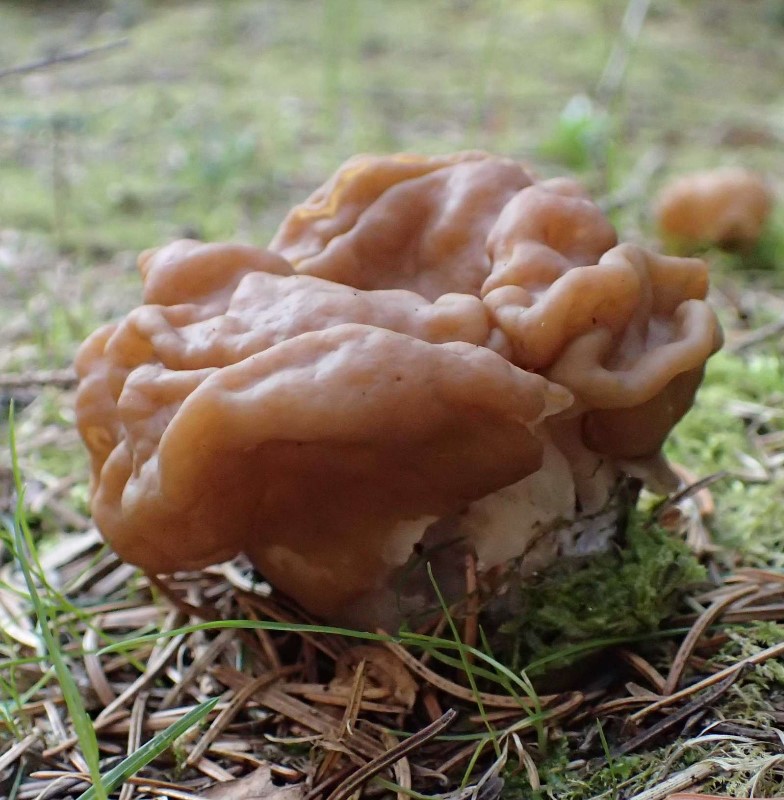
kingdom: Fungi
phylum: Ascomycota
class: Pezizomycetes
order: Pezizales
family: Discinaceae
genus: Gyromitra
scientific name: Gyromitra gigas
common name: kæmpe-stenmorkel
